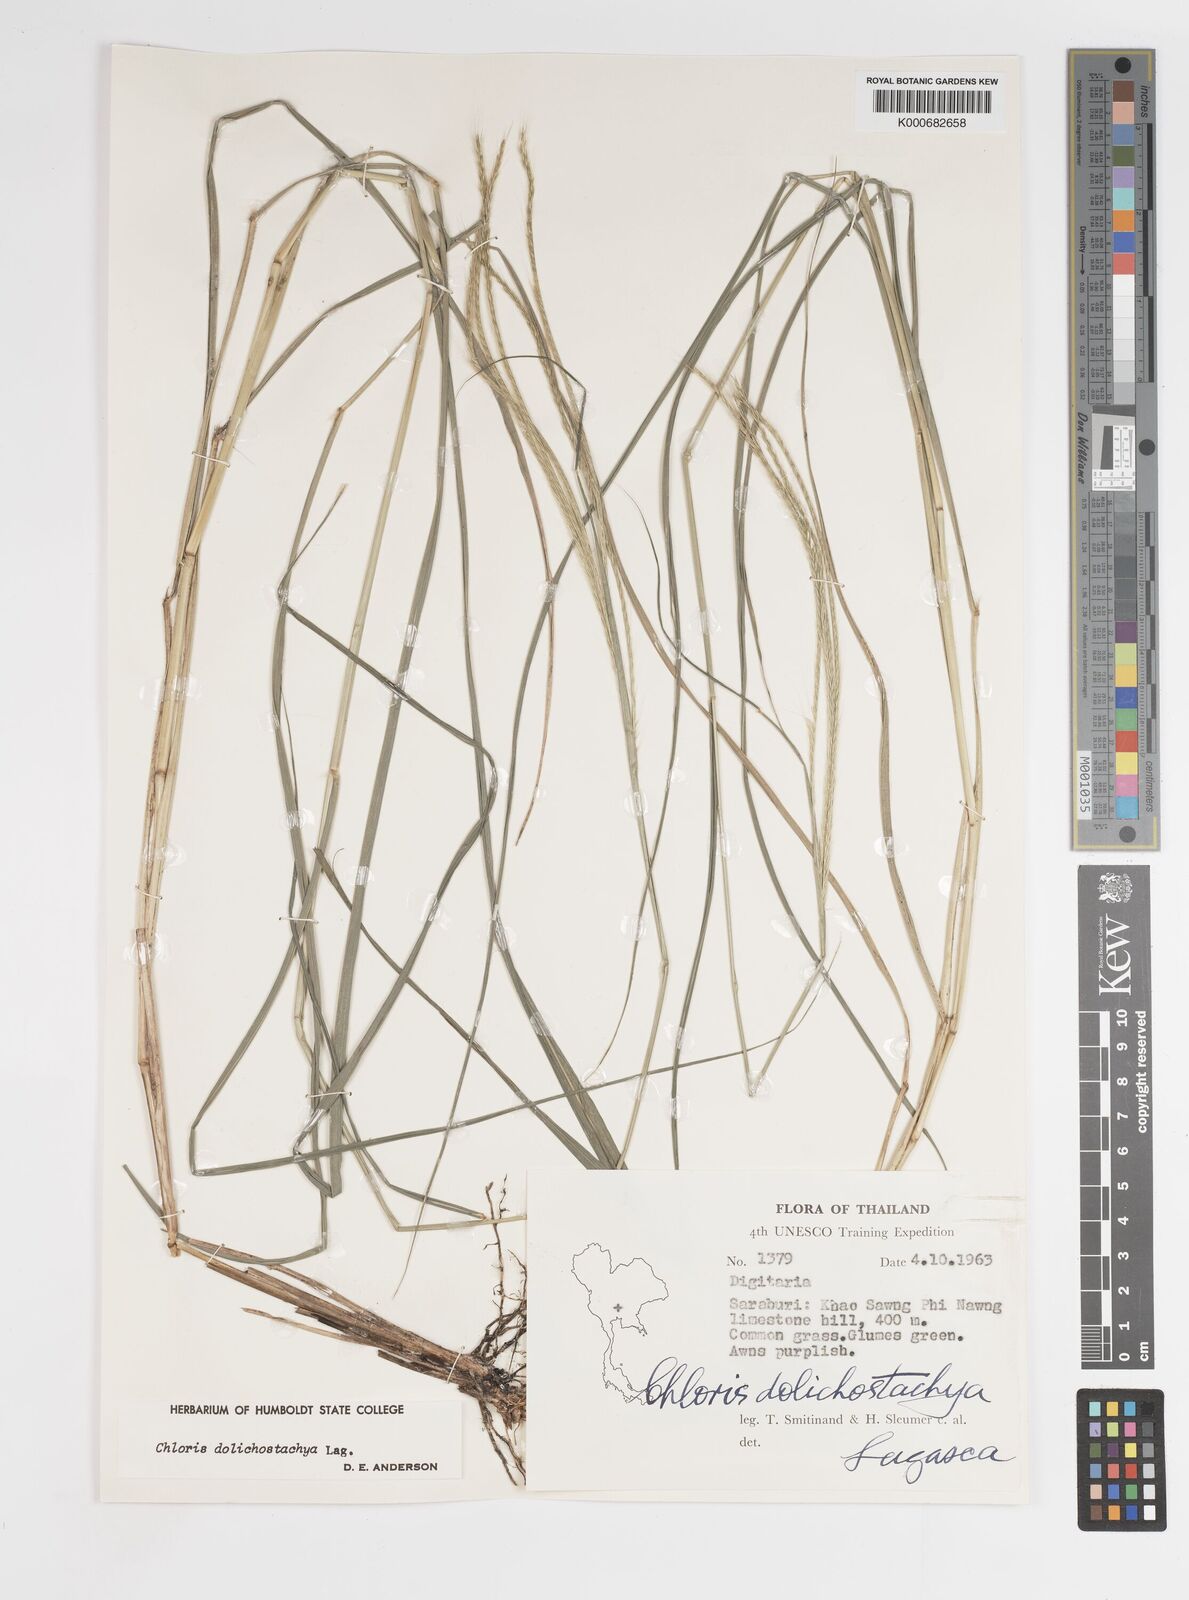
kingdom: Plantae
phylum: Tracheophyta
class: Liliopsida
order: Poales
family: Poaceae
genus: Enteropogon
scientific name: Enteropogon
